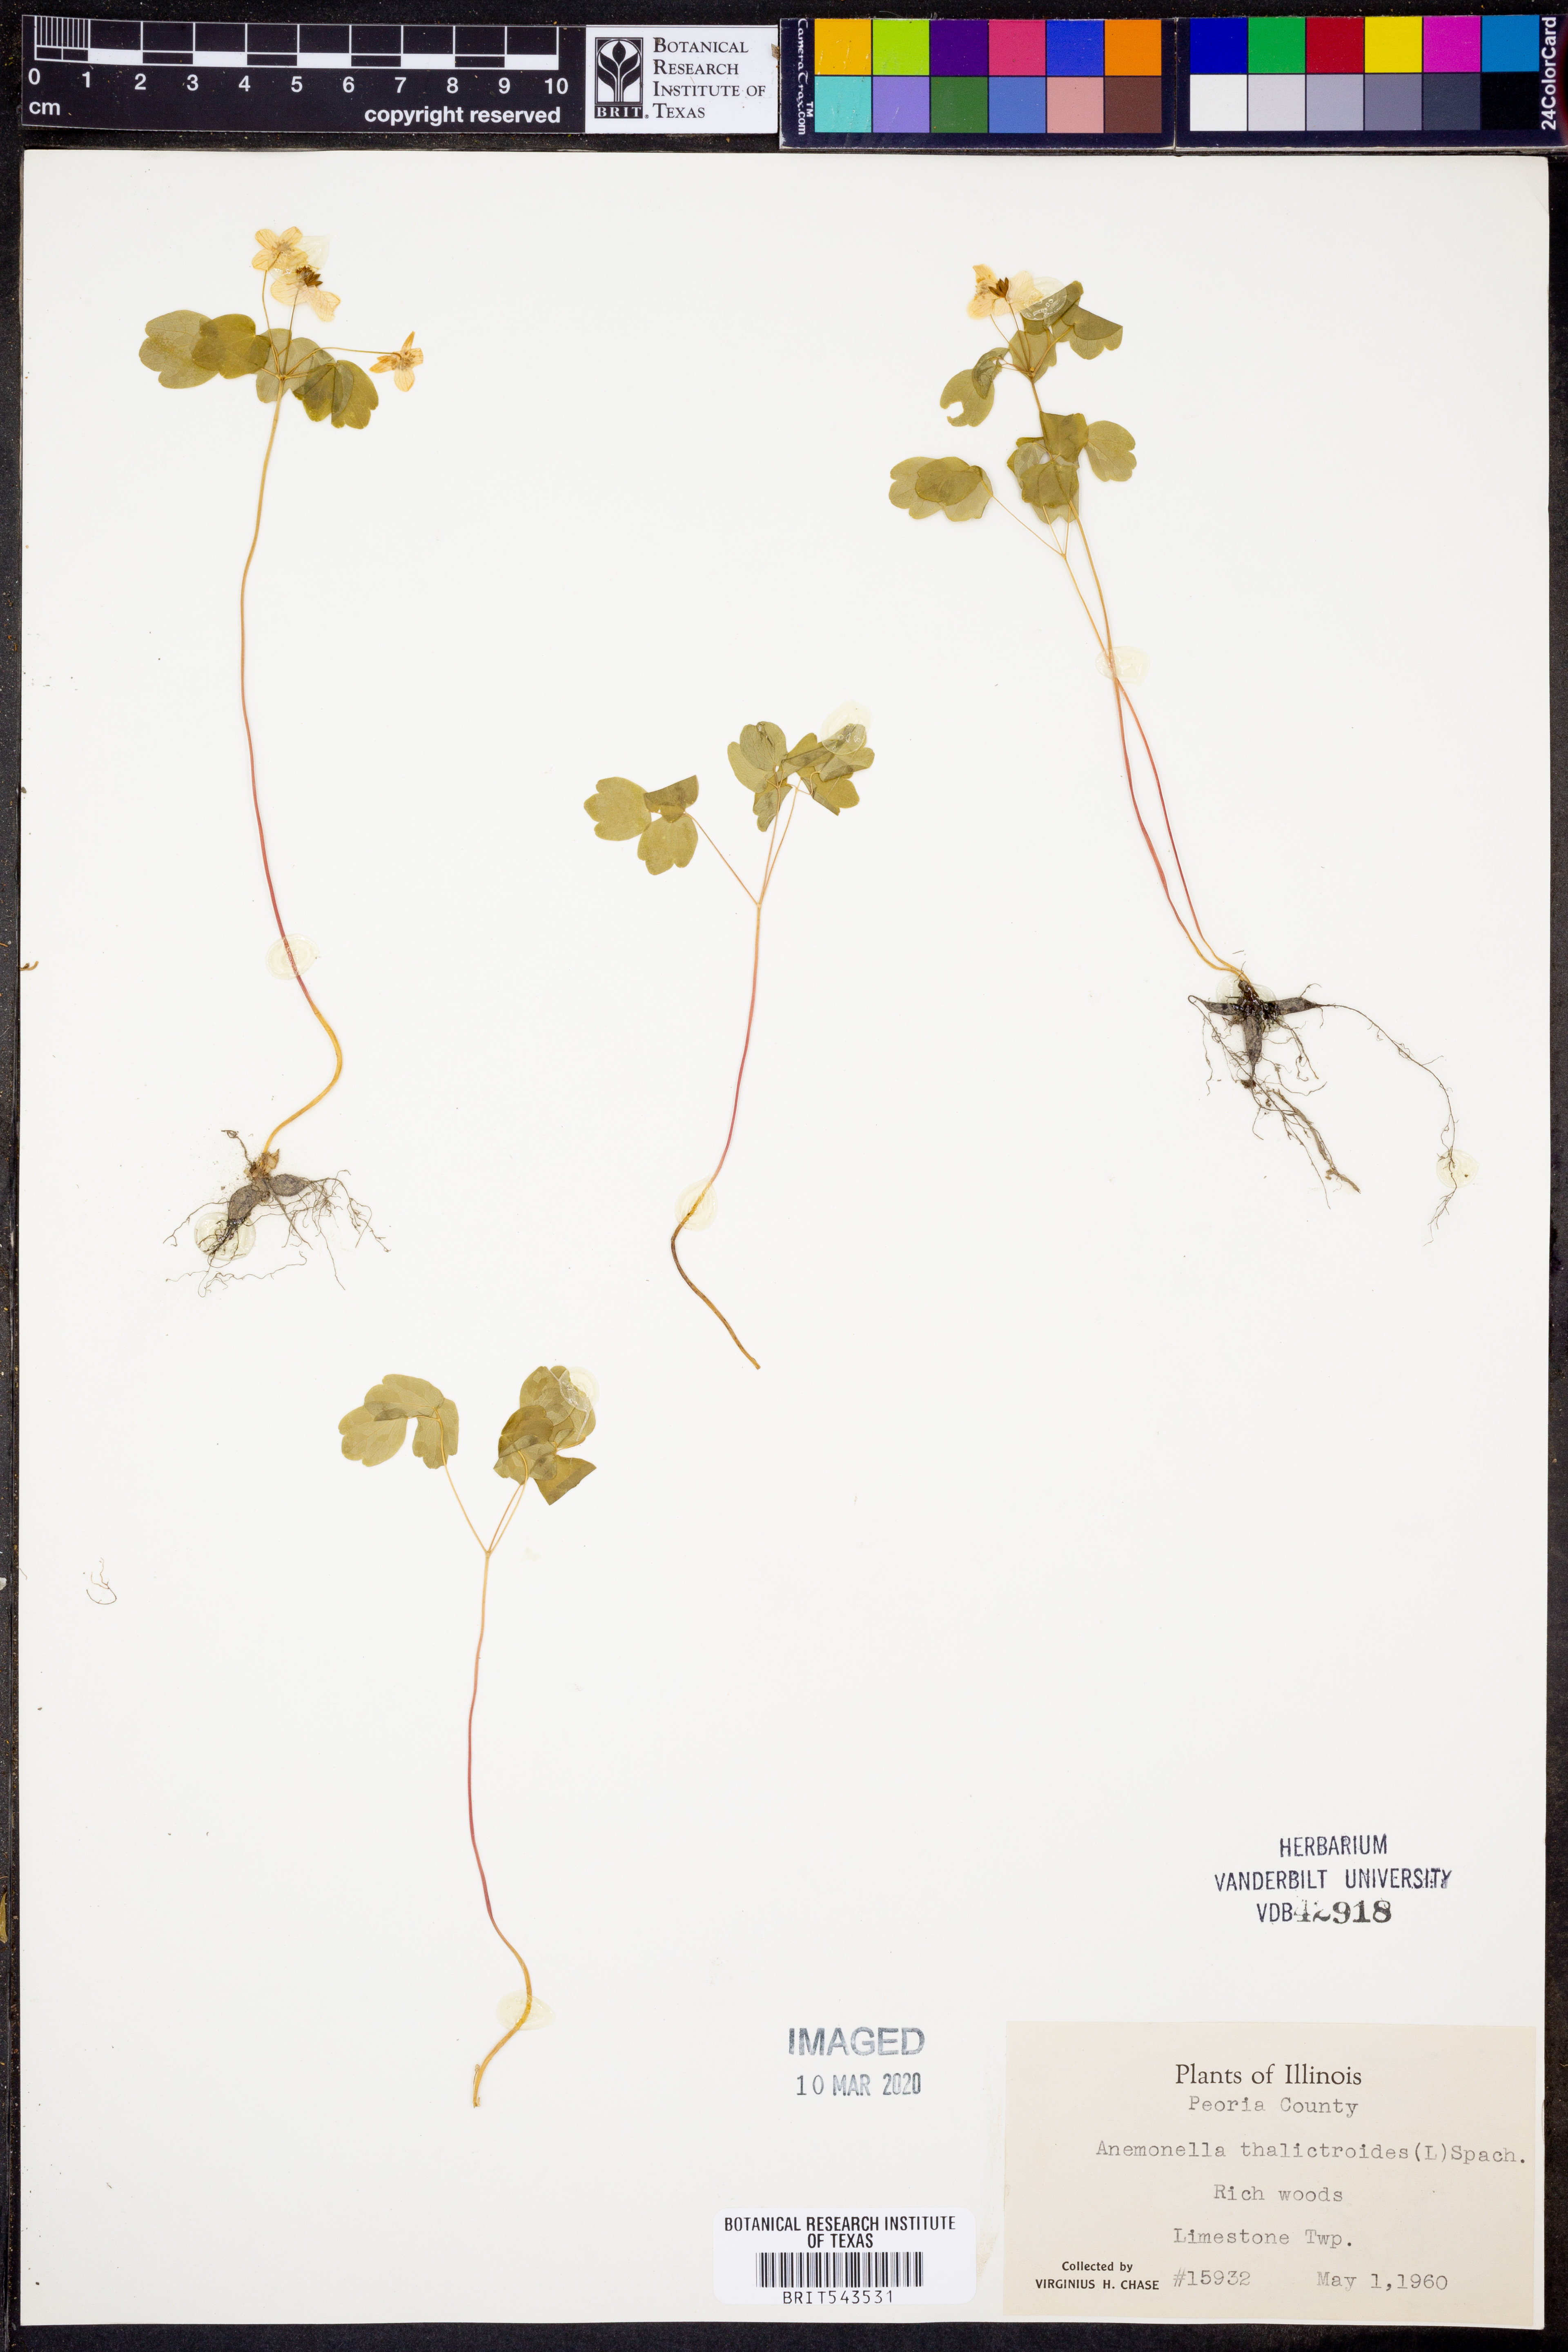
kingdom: Plantae
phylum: Tracheophyta
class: Magnoliopsida
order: Ranunculales
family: Ranunculaceae
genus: Thalictrum
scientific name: Thalictrum thalictroides
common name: Rue-anemone
